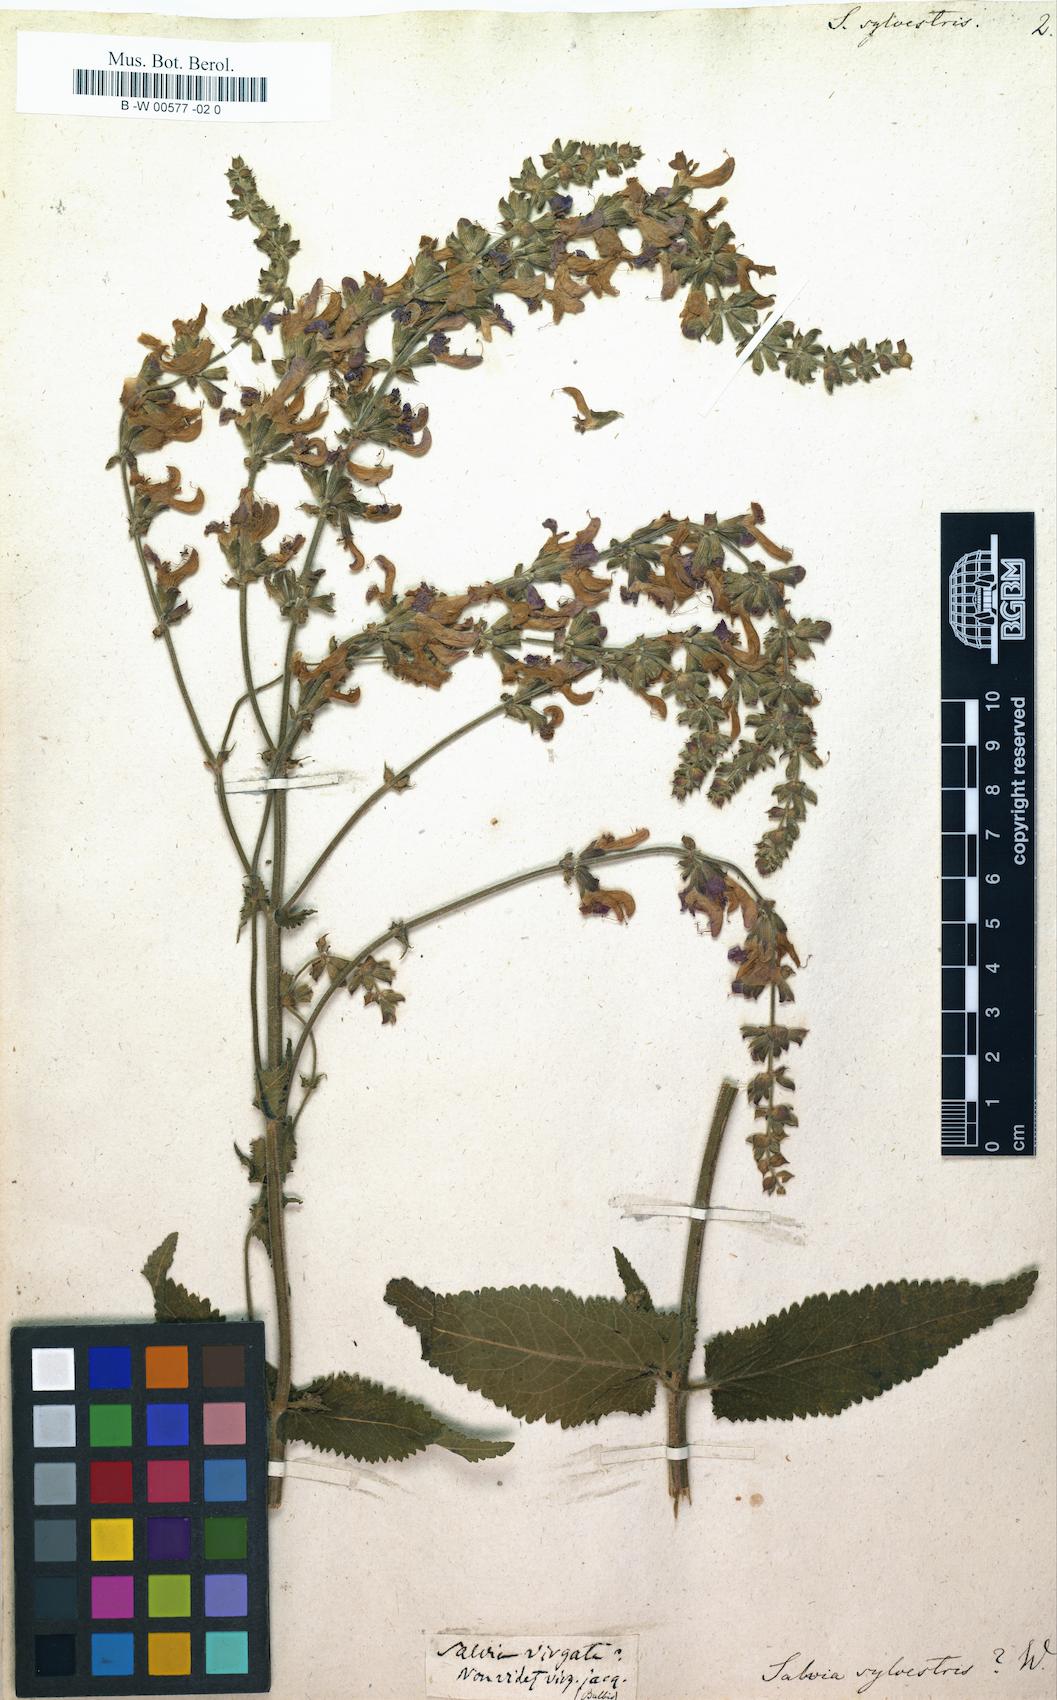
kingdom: Plantae
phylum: Tracheophyta
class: Magnoliopsida
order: Lamiales
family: Lamiaceae
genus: Salvia
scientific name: Salvia sylvestris
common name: Woodland sage
